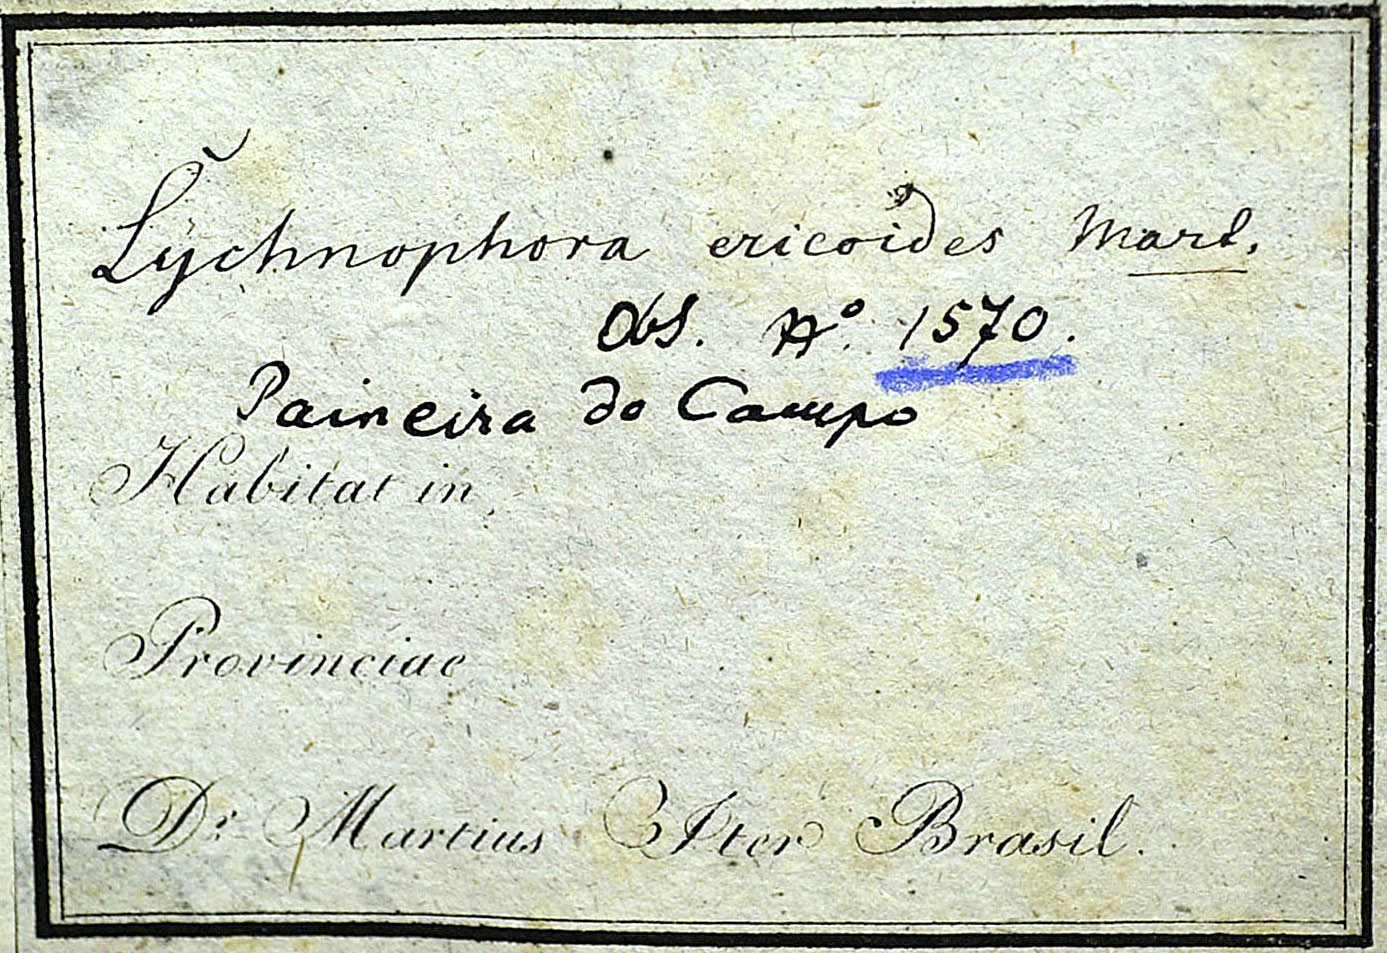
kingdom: Plantae
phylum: Tracheophyta
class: Magnoliopsida
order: Asterales
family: Asteraceae
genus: Lychnophora
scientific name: Lychnophora ericoides
